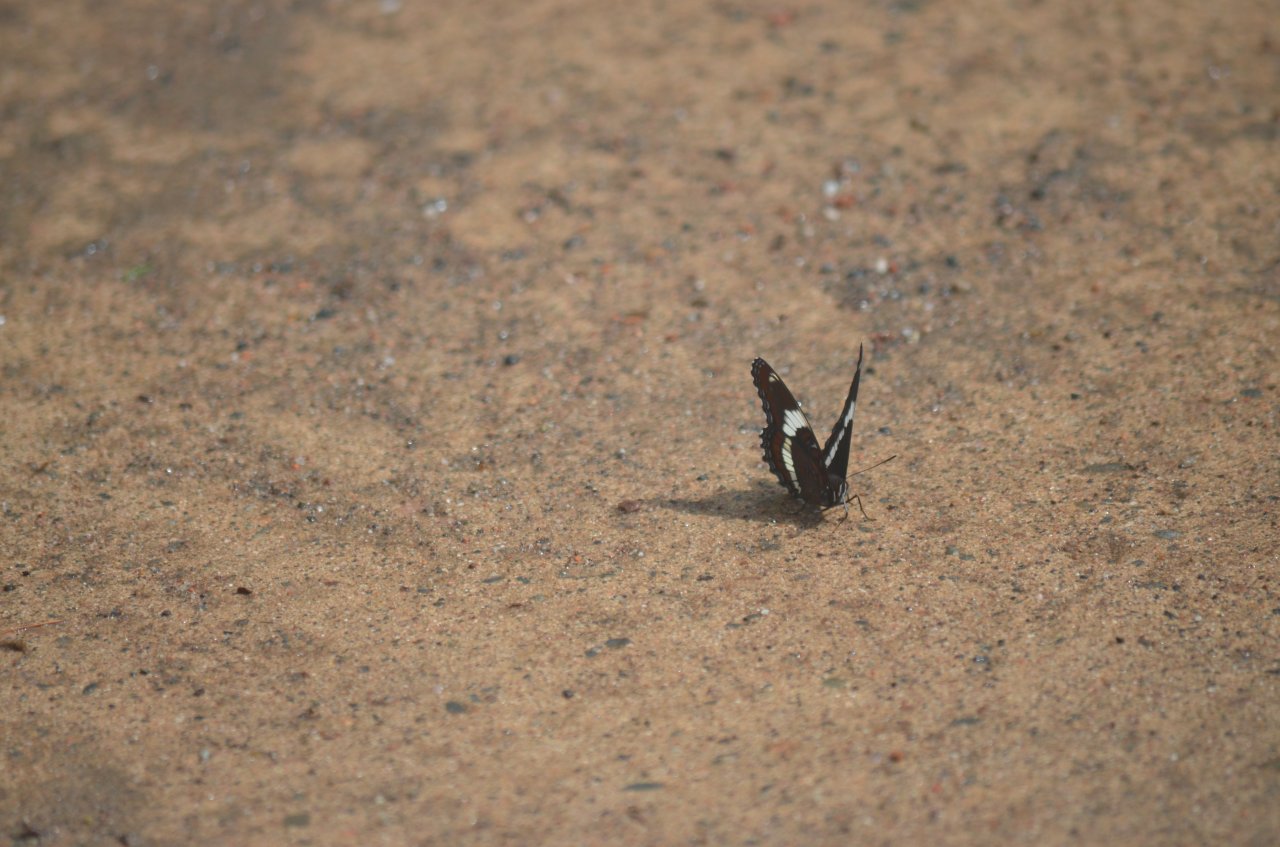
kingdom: Animalia
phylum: Arthropoda
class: Insecta
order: Lepidoptera
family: Nymphalidae
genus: Limenitis
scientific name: Limenitis arthemis
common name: Red-spotted Admiral
